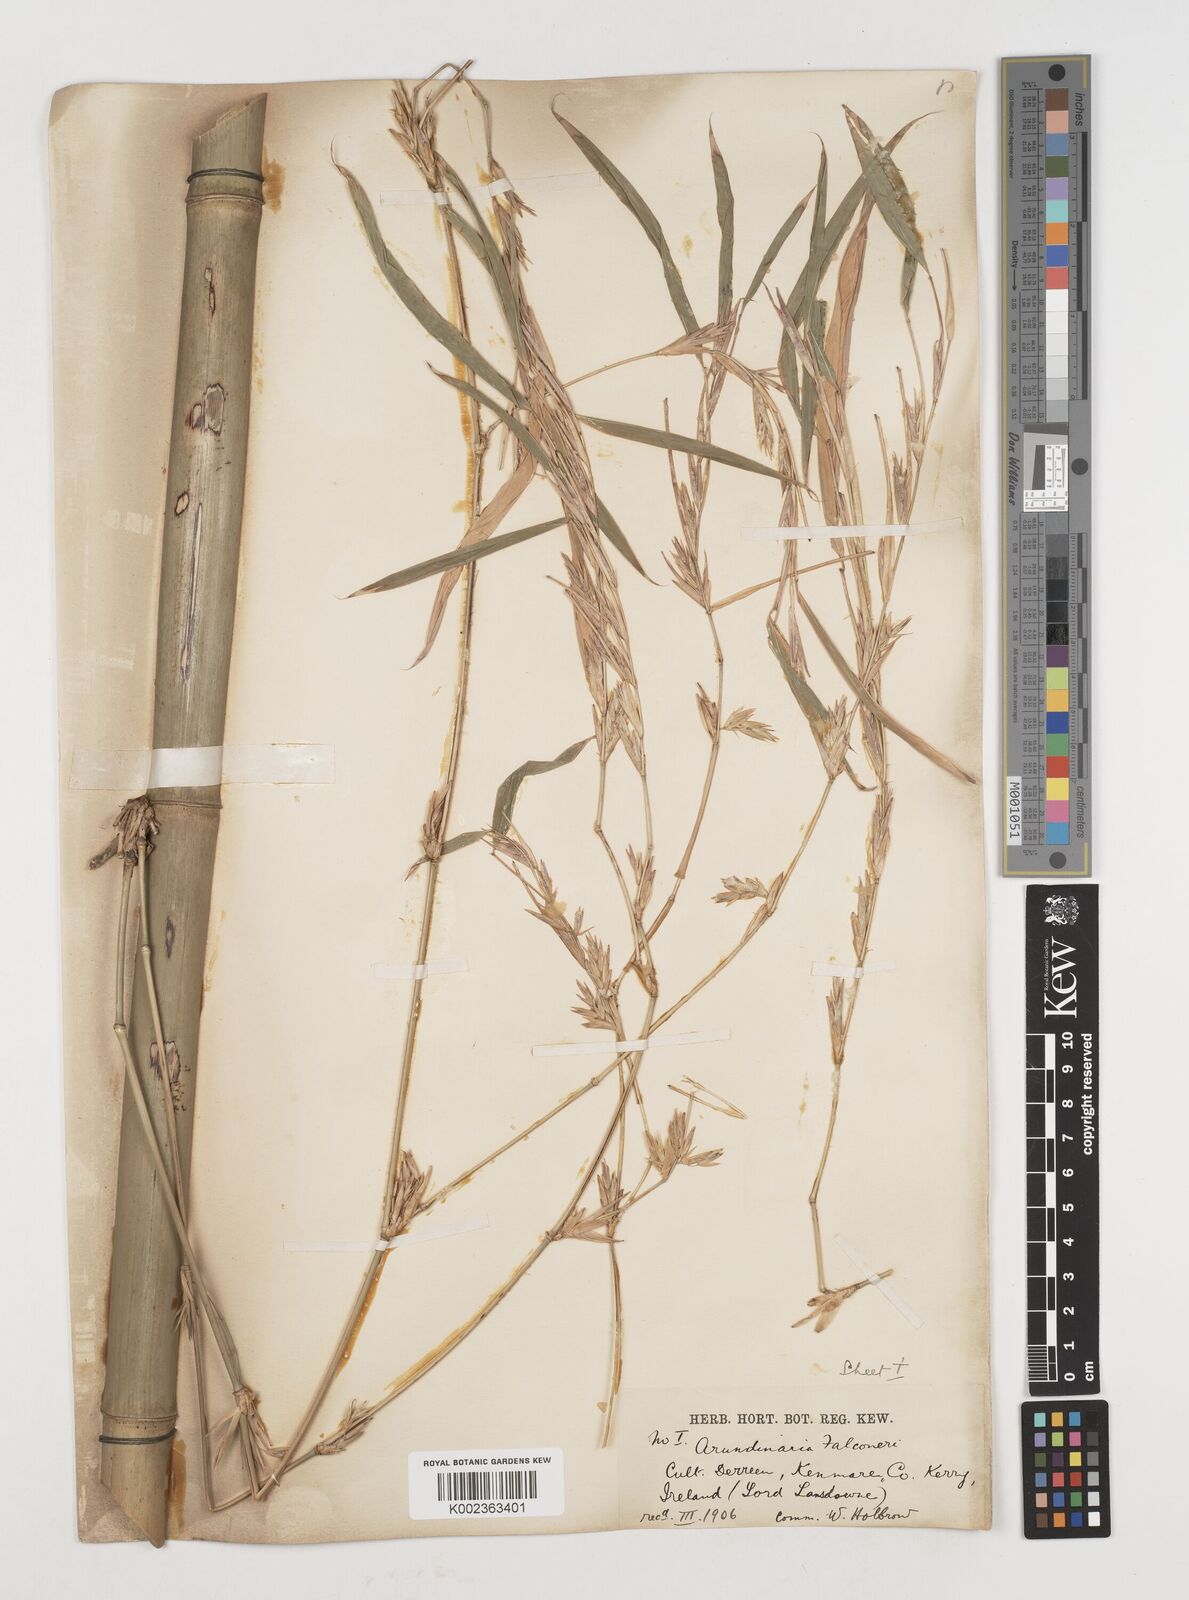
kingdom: Plantae
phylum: Tracheophyta
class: Liliopsida
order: Poales
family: Poaceae
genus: Himalayacalamus
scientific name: Himalayacalamus falconeri
